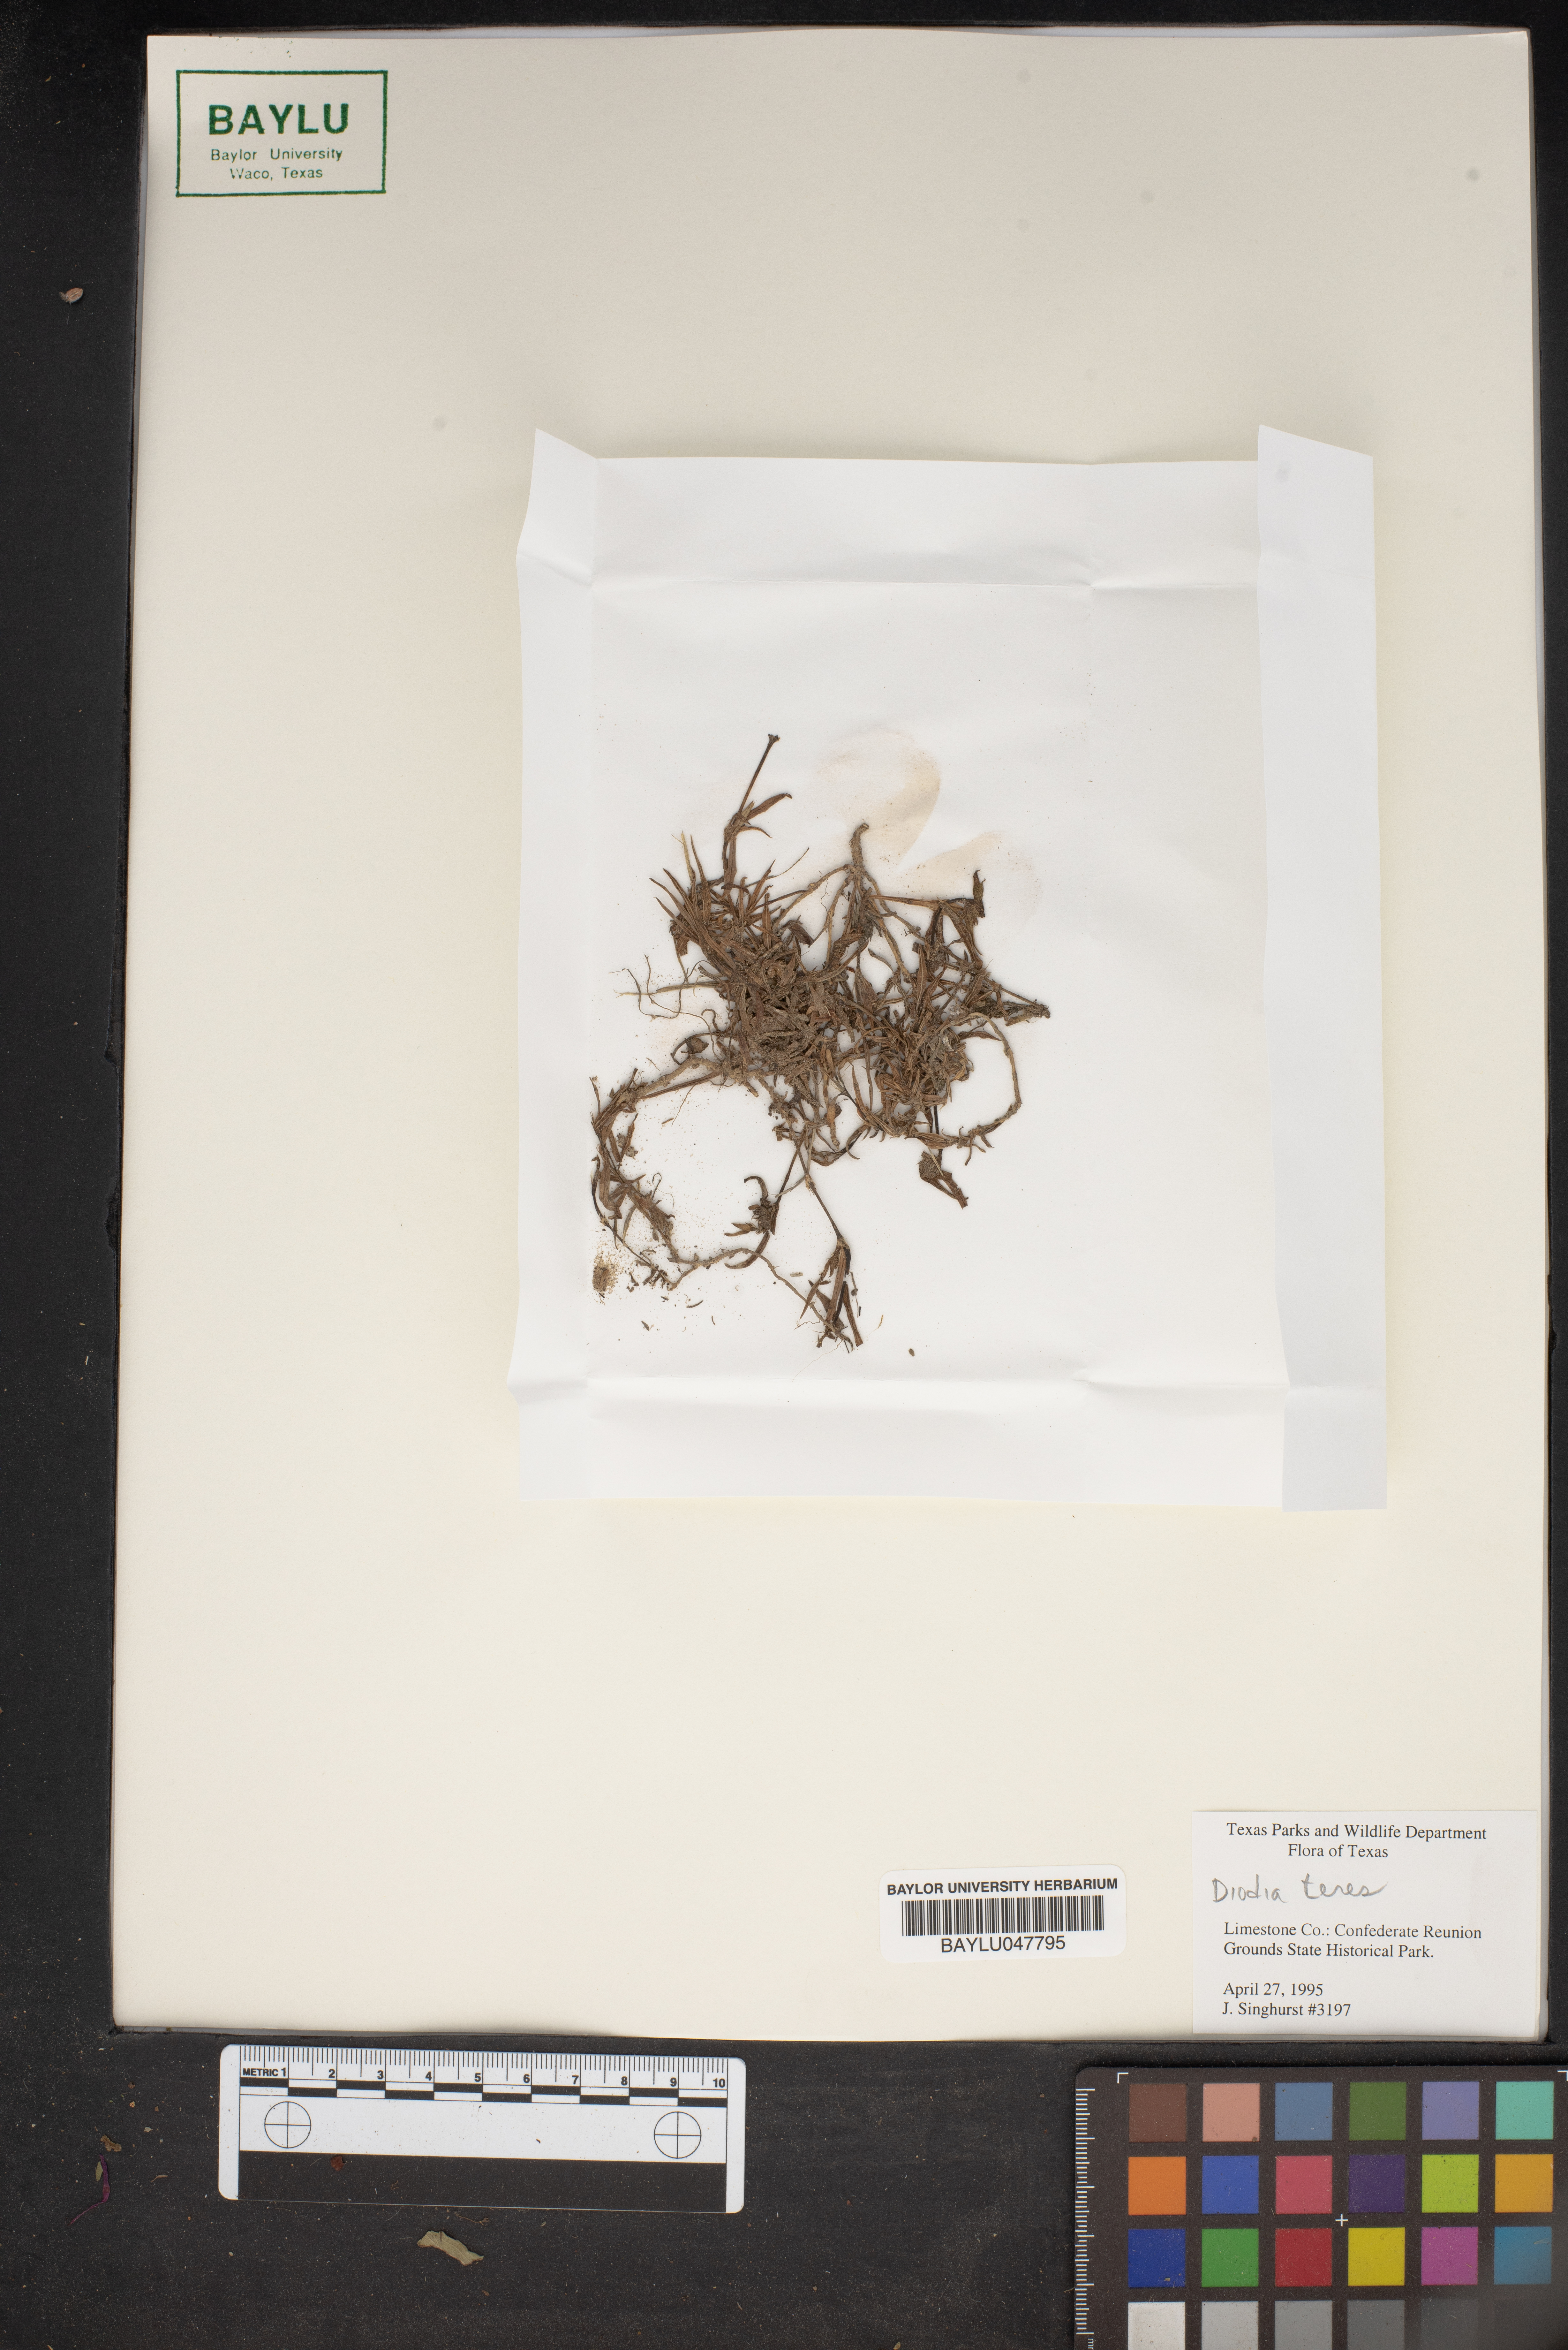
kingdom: Plantae
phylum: Tracheophyta
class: Magnoliopsida
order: Gentianales
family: Rubiaceae
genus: Hexasepalum
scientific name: Hexasepalum teres
